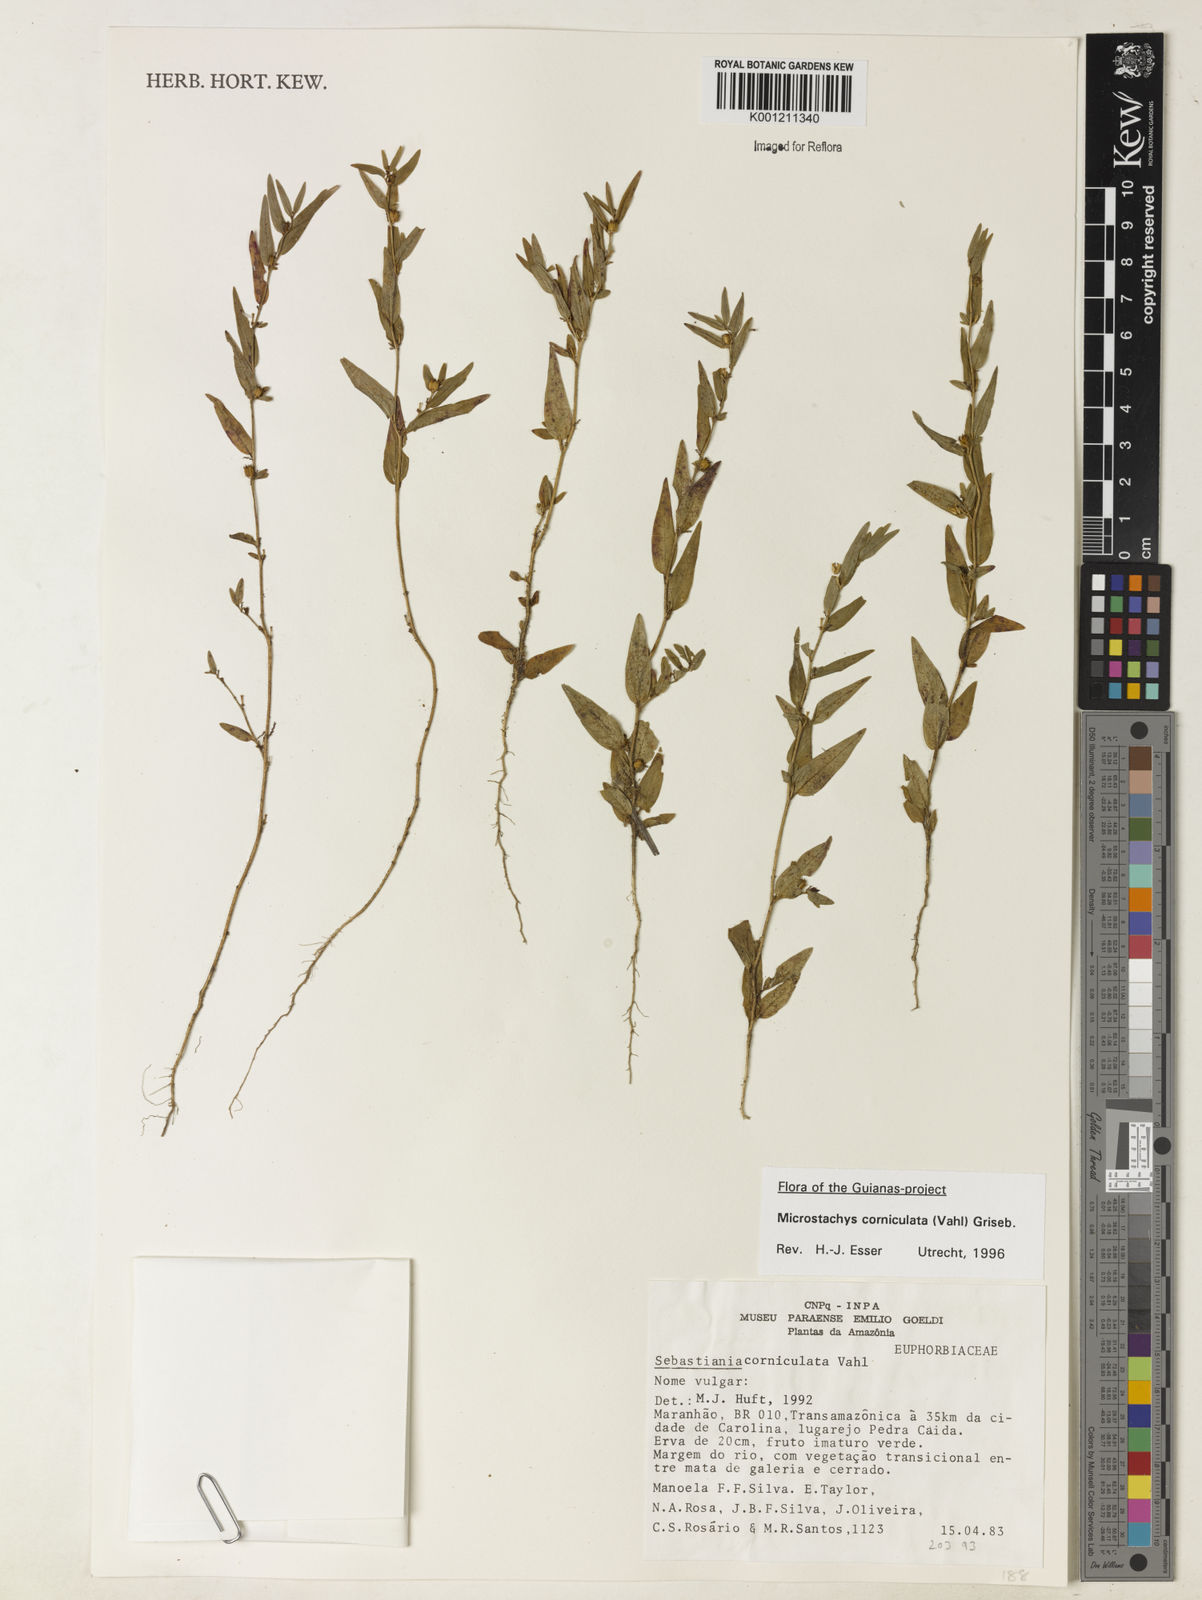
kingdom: Plantae
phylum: Tracheophyta
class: Magnoliopsida
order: Malpighiales
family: Euphorbiaceae
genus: Microstachys
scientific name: Microstachys corniculata
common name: Hato tejas
